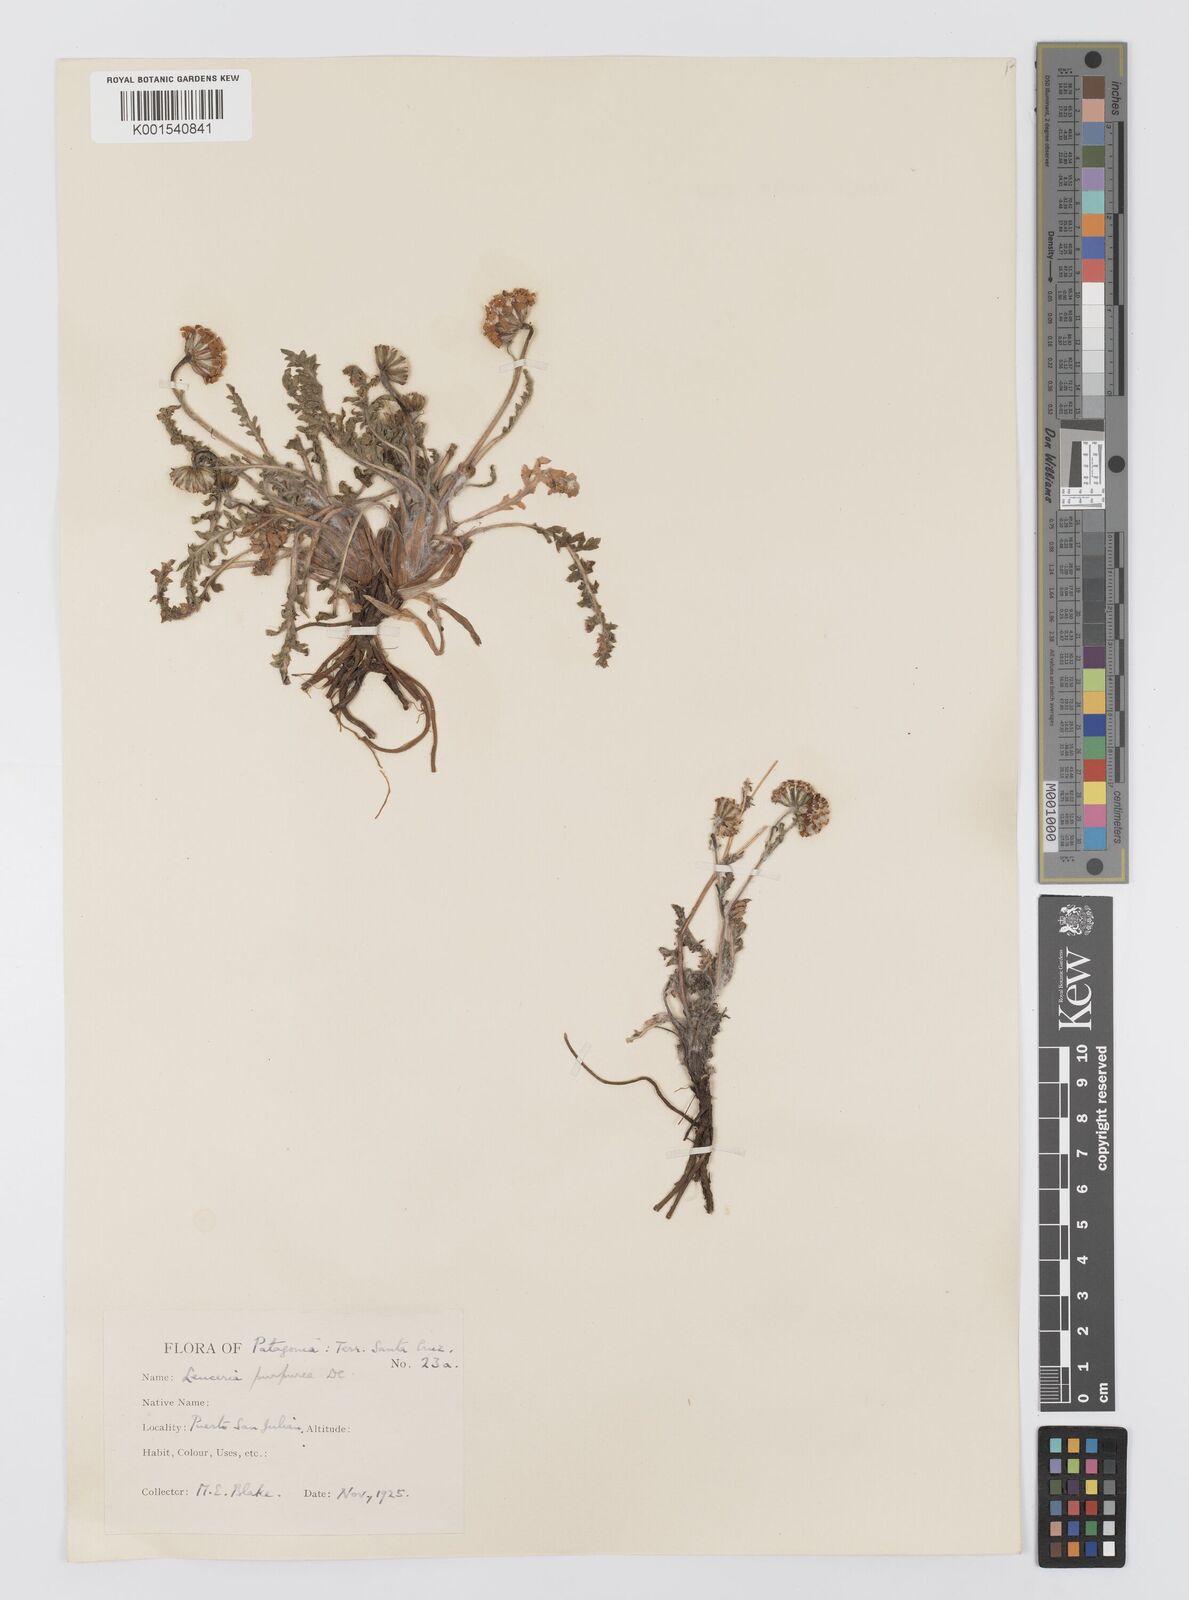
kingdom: Plantae
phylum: Tracheophyta
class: Magnoliopsida
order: Asterales
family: Asteraceae
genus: Leucheria
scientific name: Leucheria purpurea
